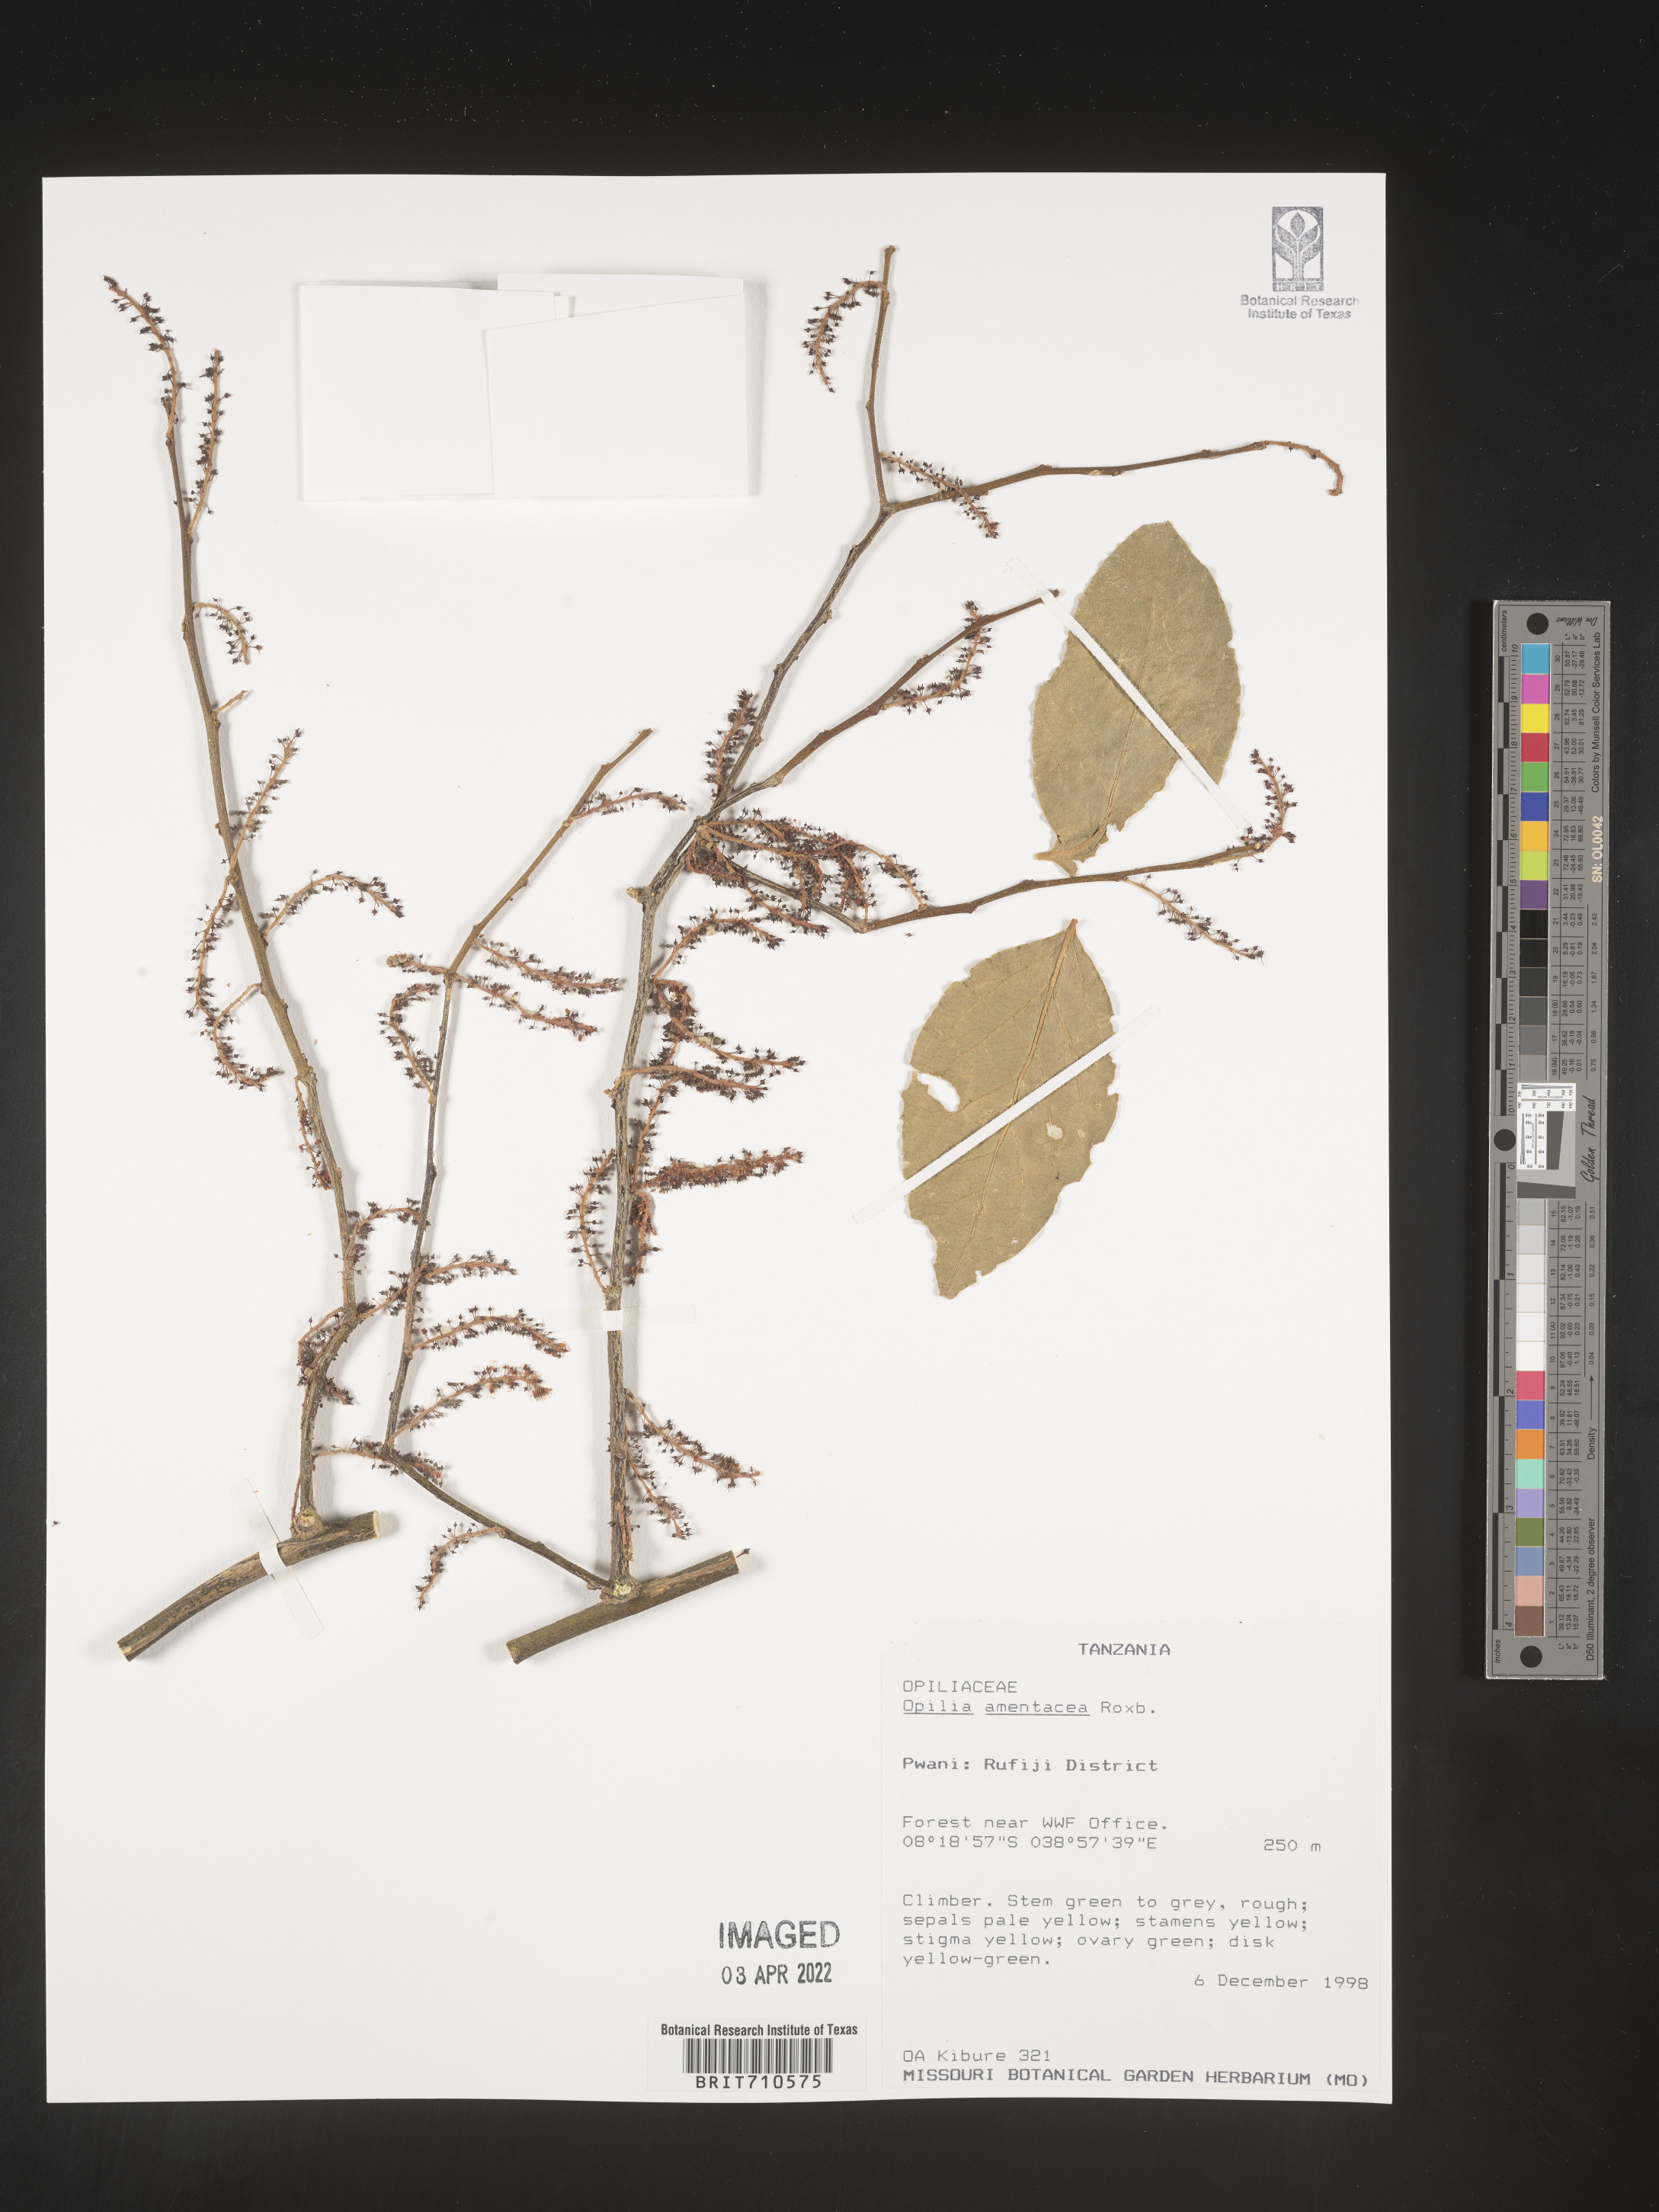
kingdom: Plantae
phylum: Tracheophyta
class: Magnoliopsida
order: Santalales
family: Opiliaceae
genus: Opilia
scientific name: Opilia
